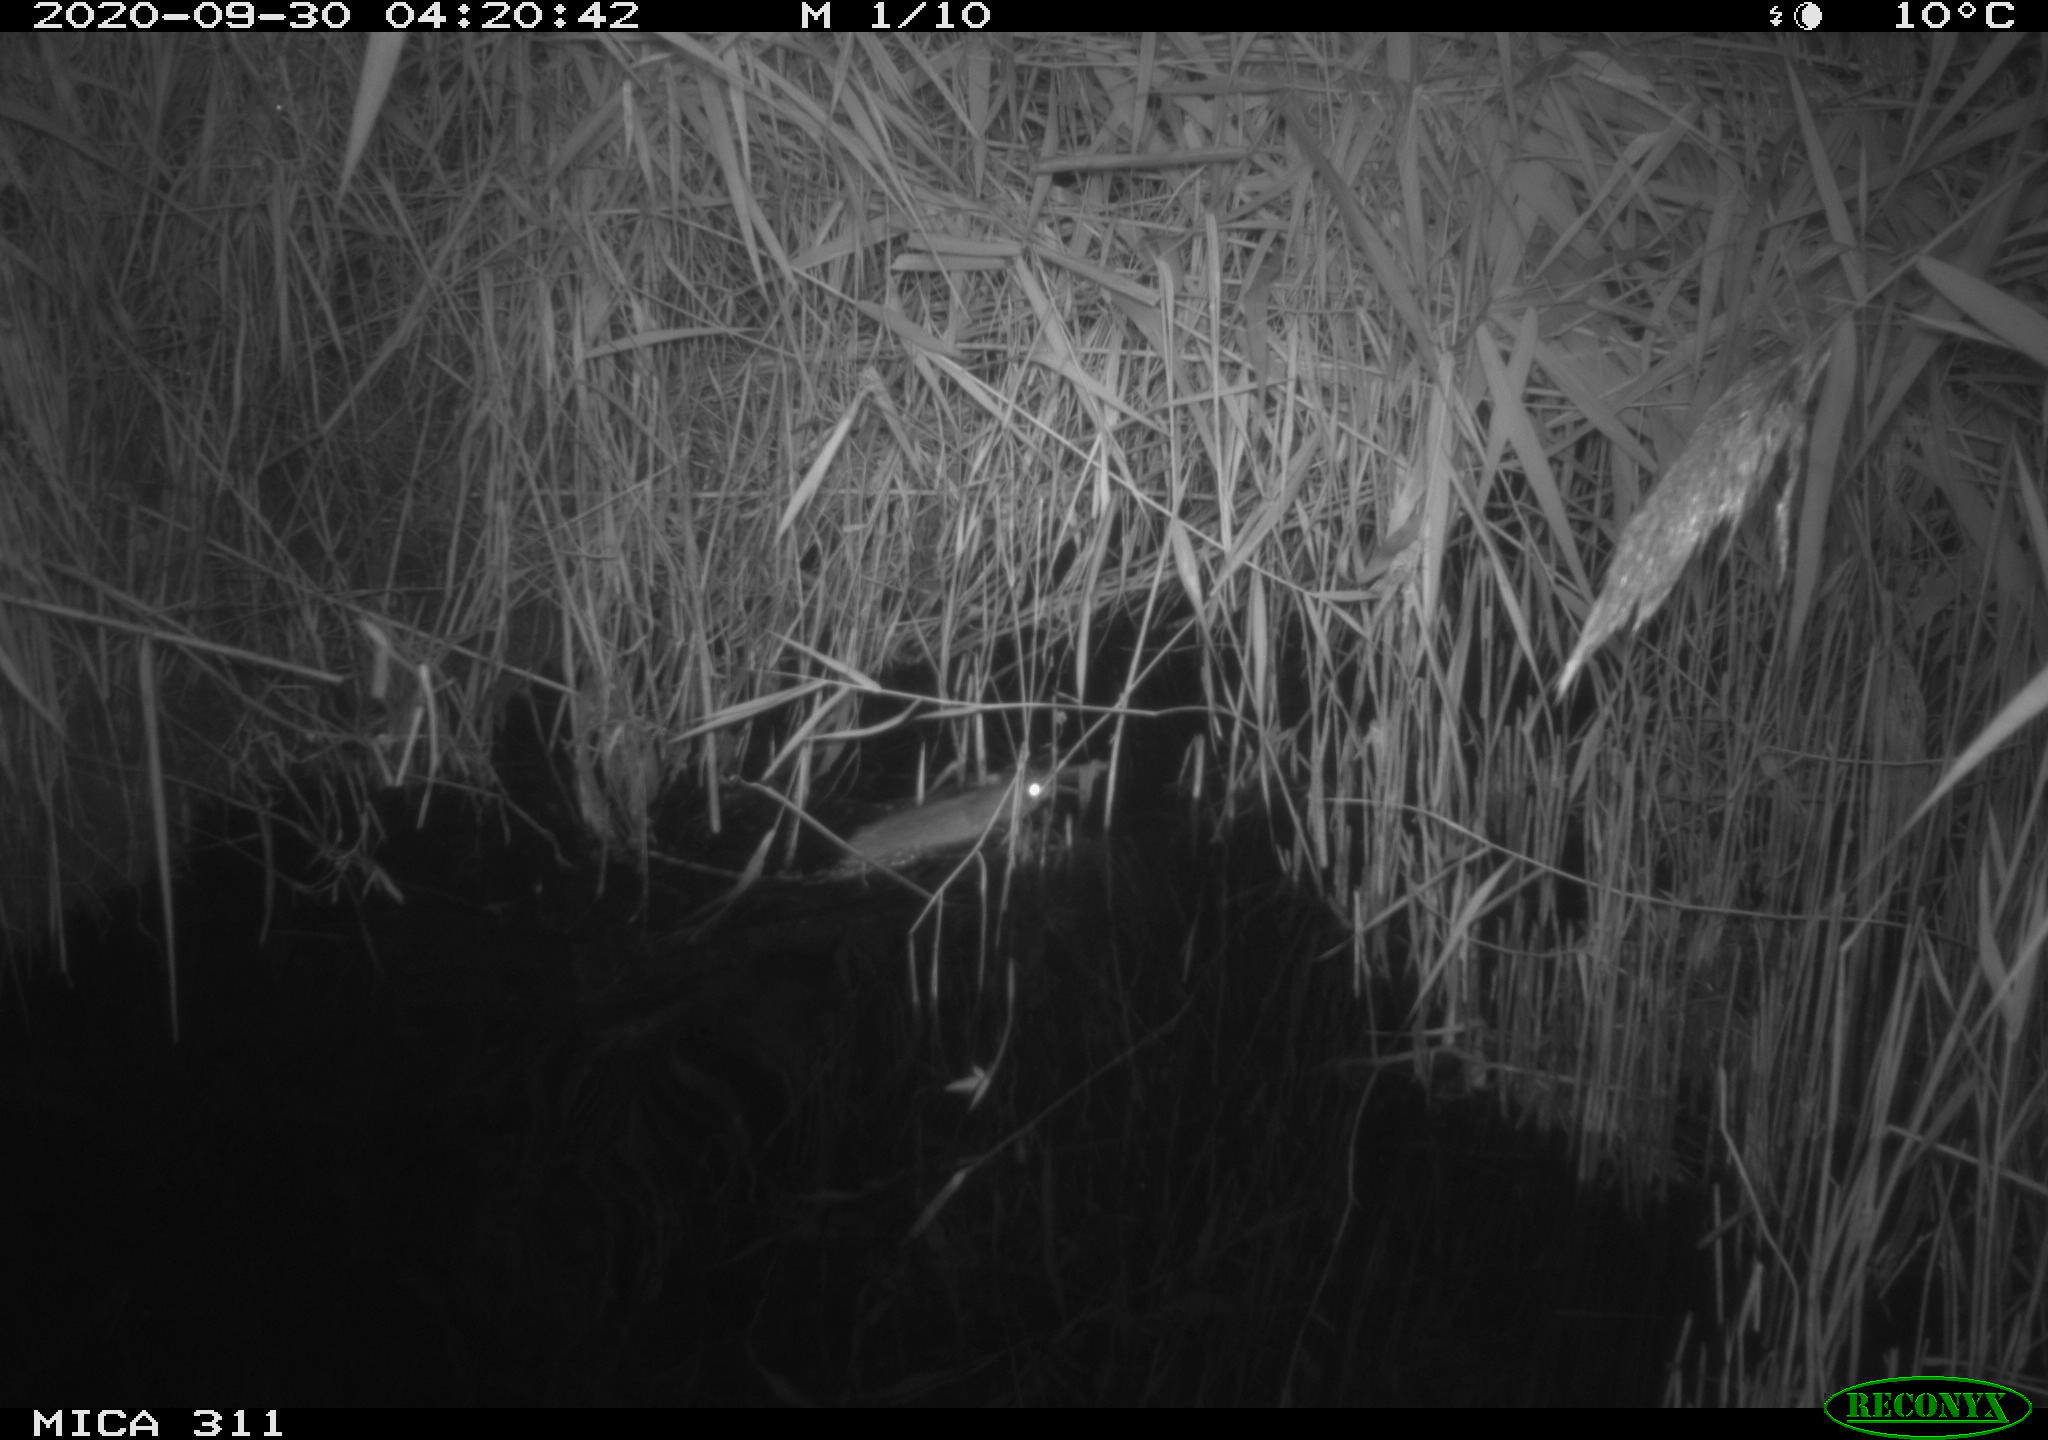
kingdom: Animalia
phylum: Chordata
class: Mammalia
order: Rodentia
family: Muridae
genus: Rattus
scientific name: Rattus norvegicus
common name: Brown rat
